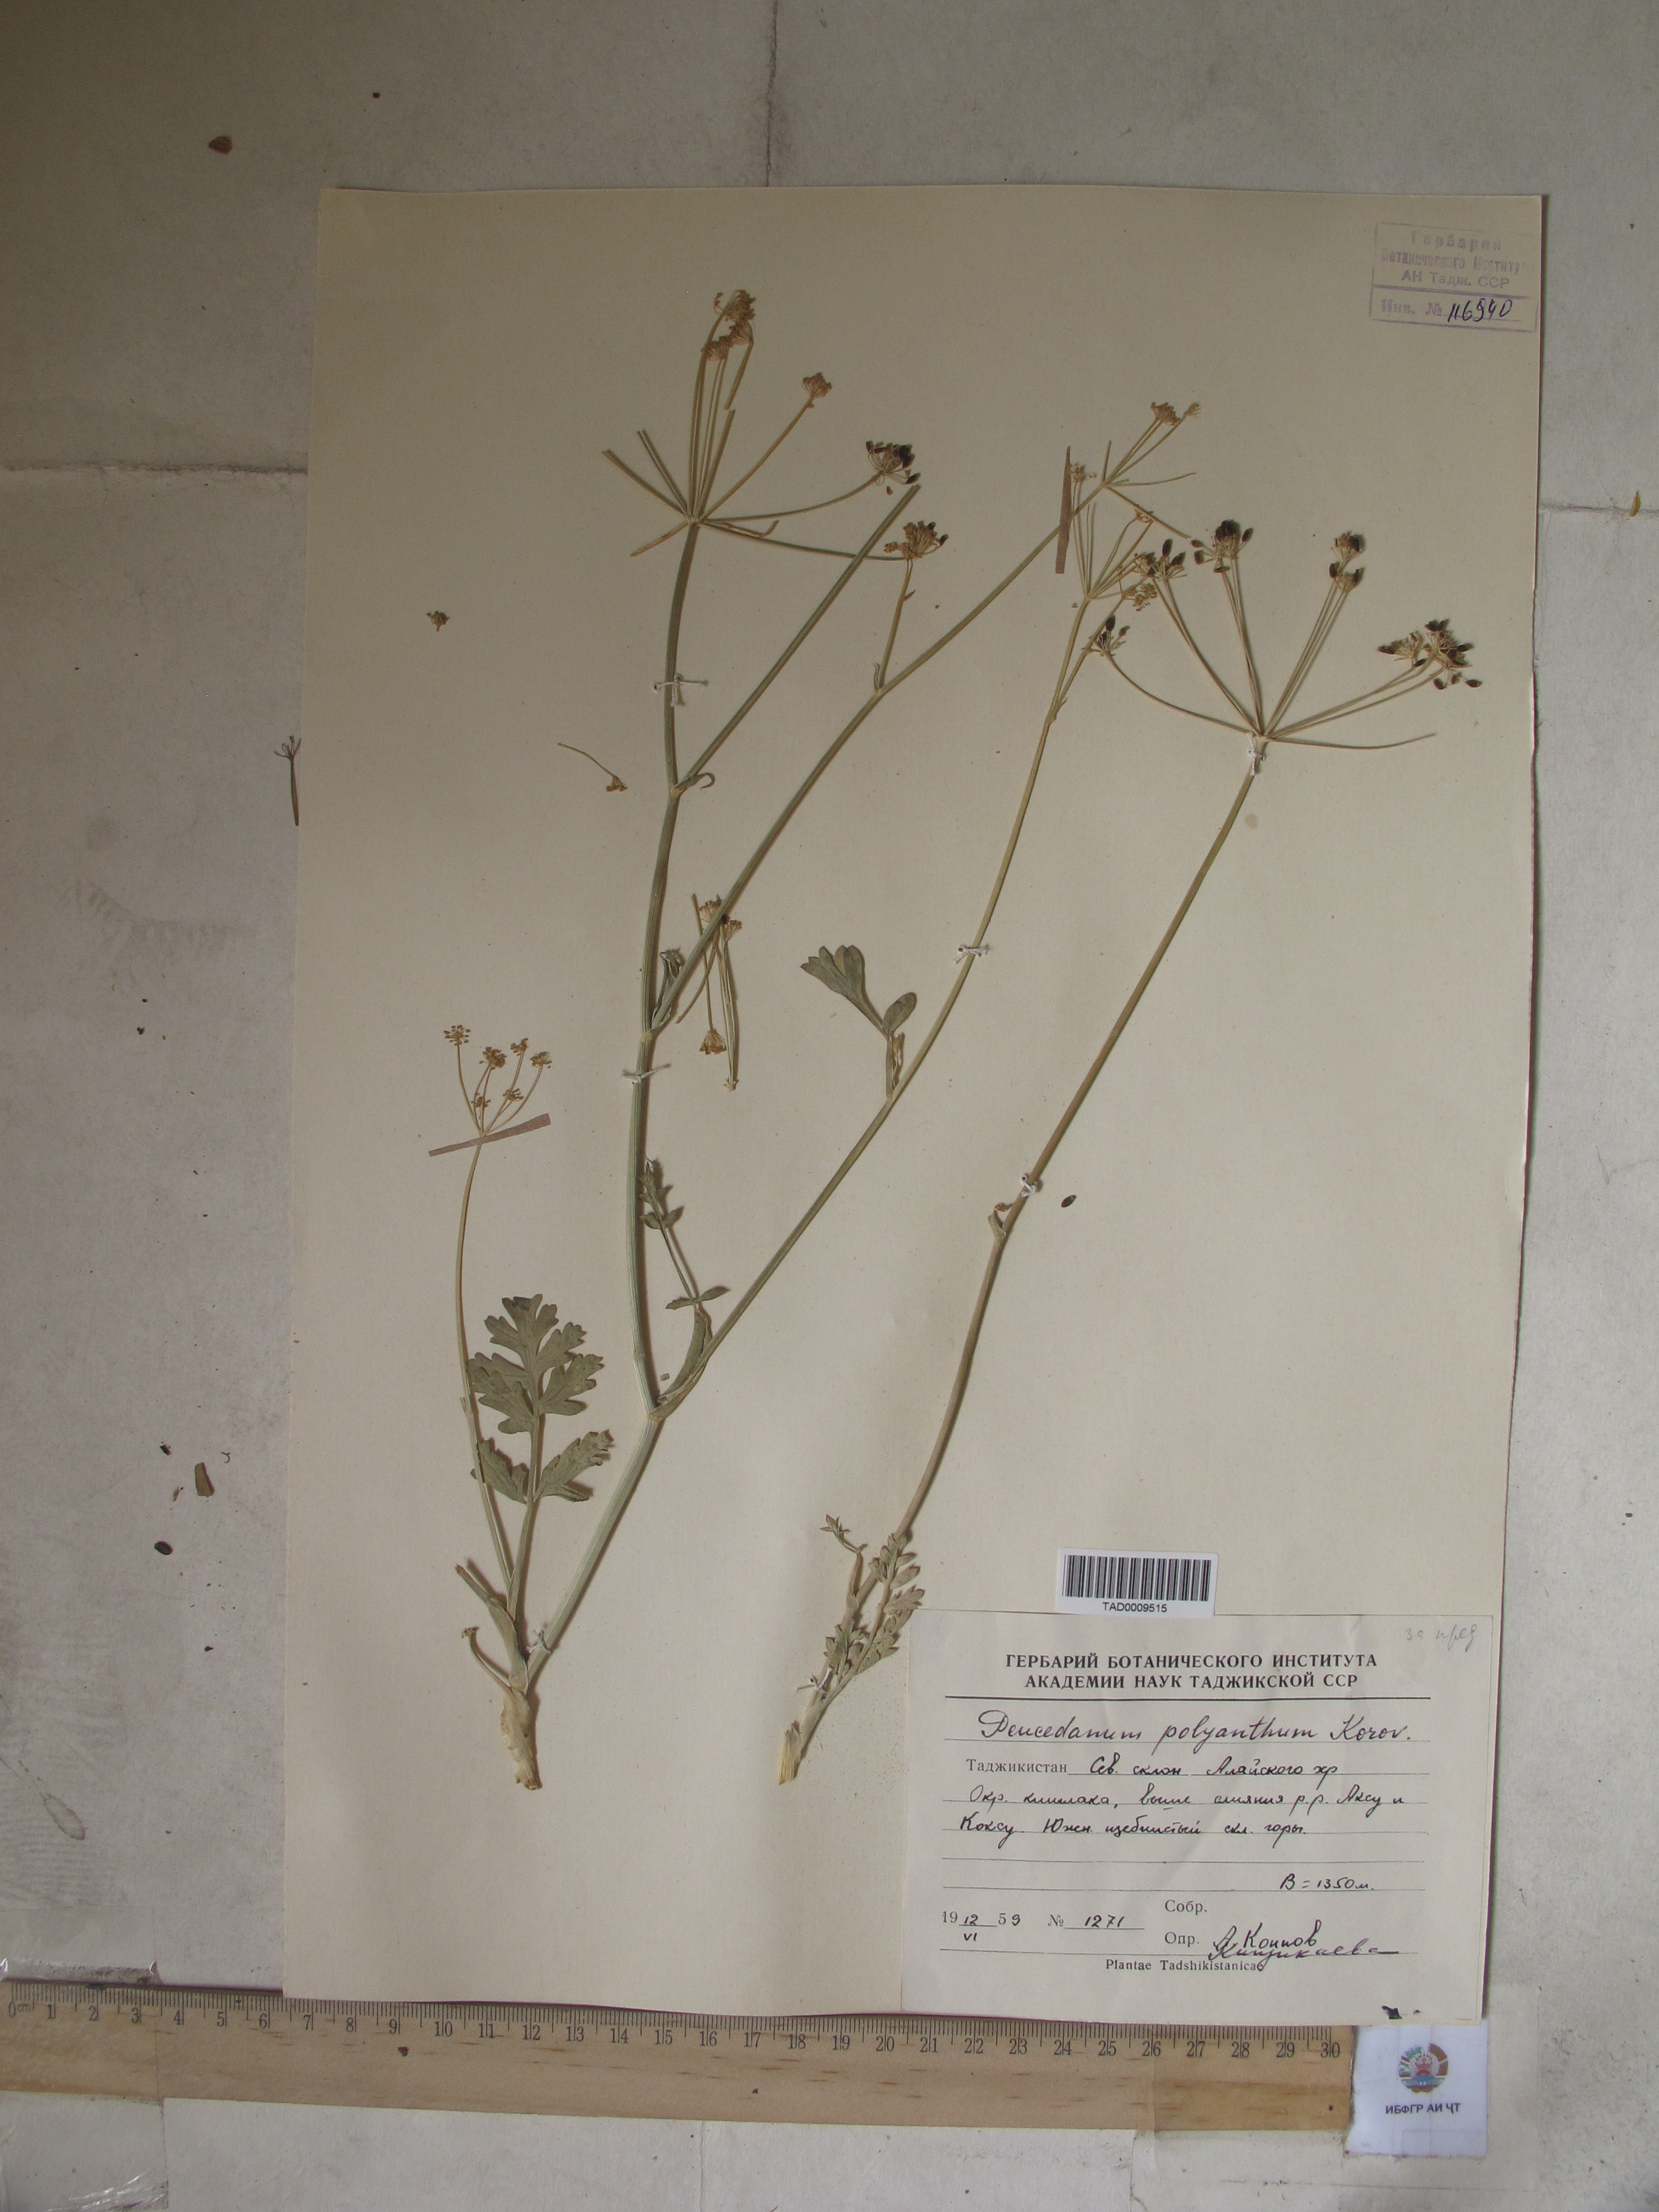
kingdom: Plantae
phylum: Tracheophyta
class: Magnoliopsida
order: Apiales
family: Apiaceae
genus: Fergania
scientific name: Fergania polyantha
